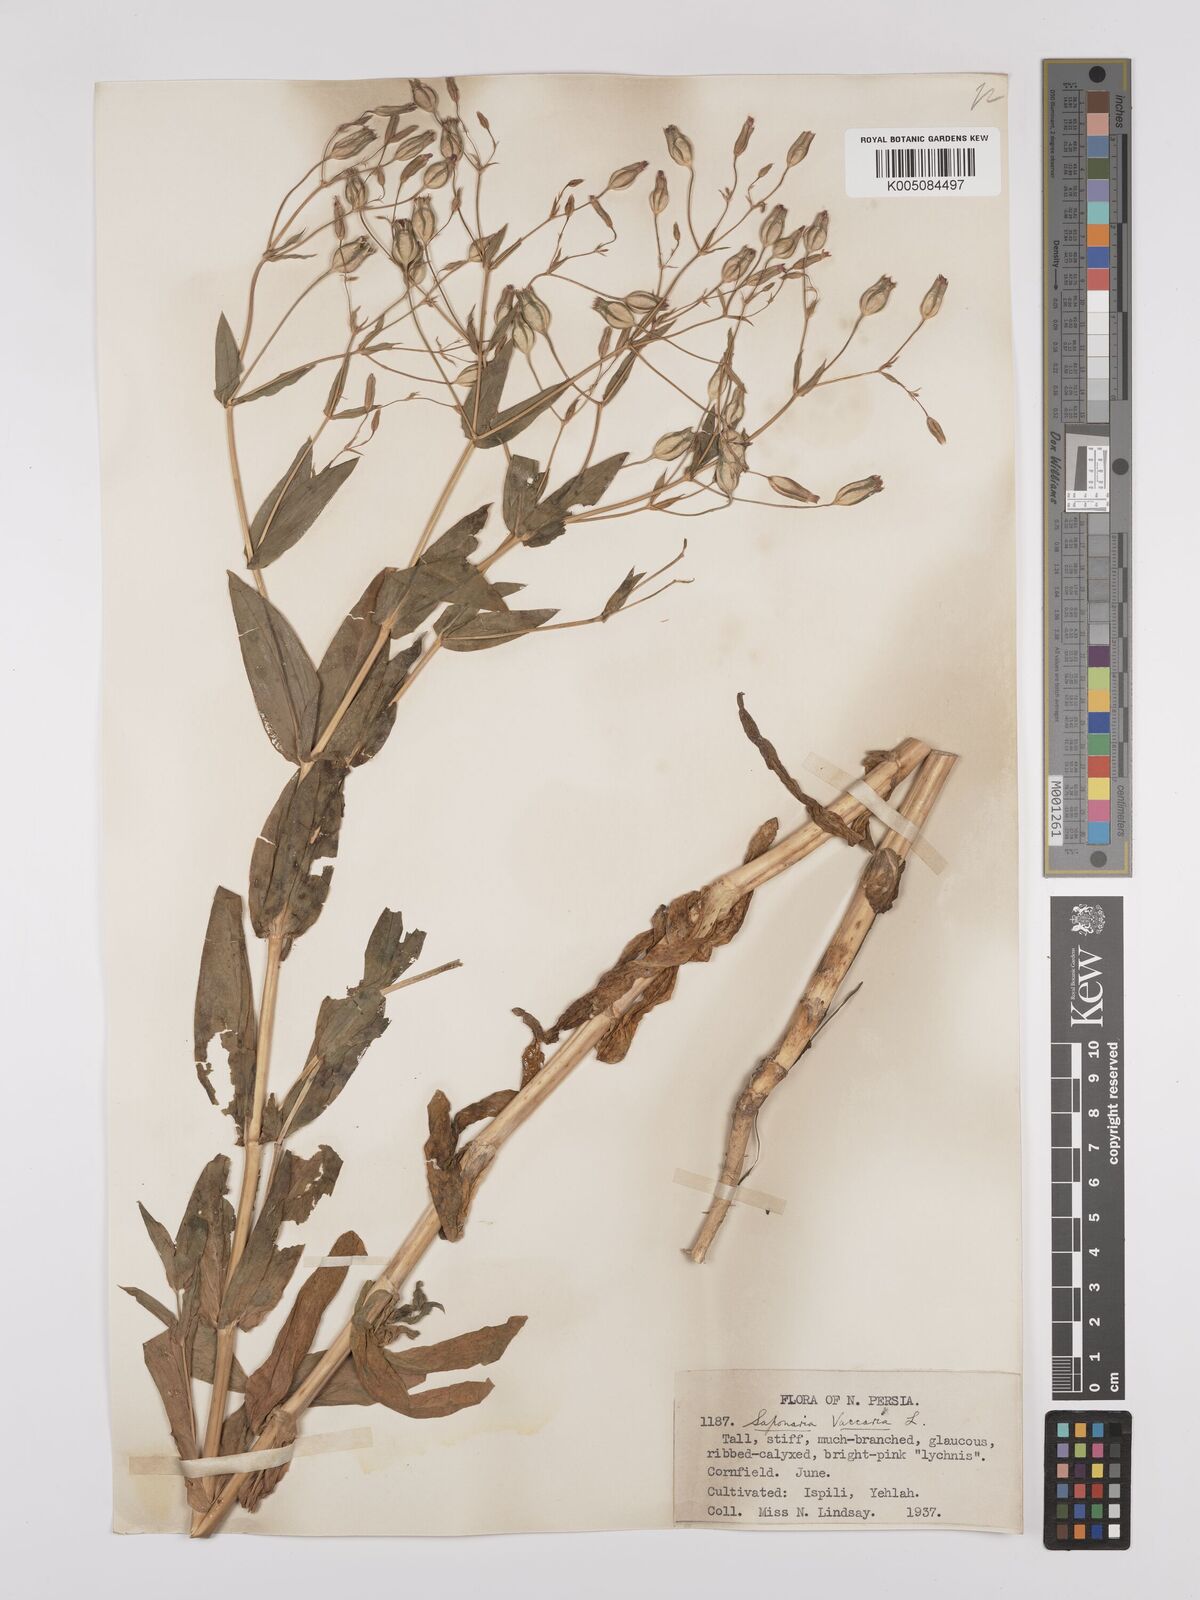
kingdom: Plantae
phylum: Tracheophyta
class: Magnoliopsida
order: Caryophyllales
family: Caryophyllaceae
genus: Gypsophila
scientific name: Gypsophila vaccaria
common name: Cow soapwort
